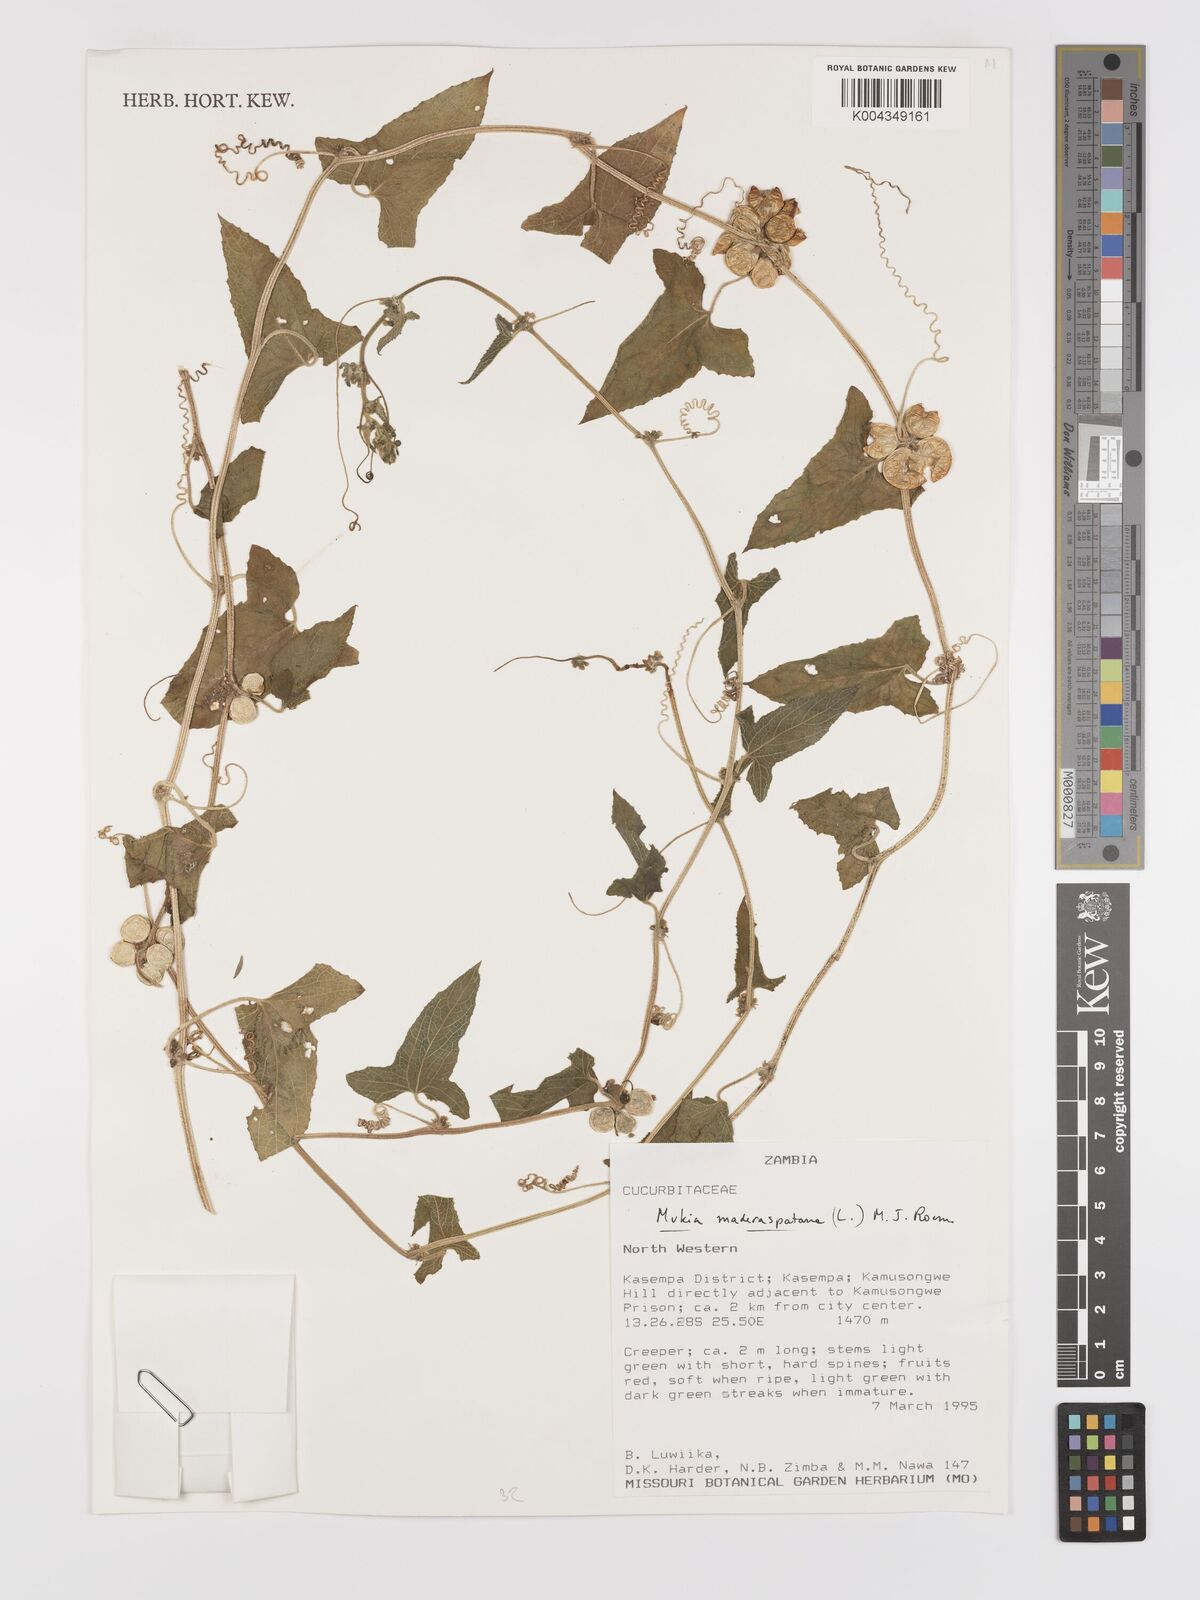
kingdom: Plantae
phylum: Tracheophyta
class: Magnoliopsida
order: Cucurbitales
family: Cucurbitaceae
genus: Cucumis
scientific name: Cucumis maderaspatanus
